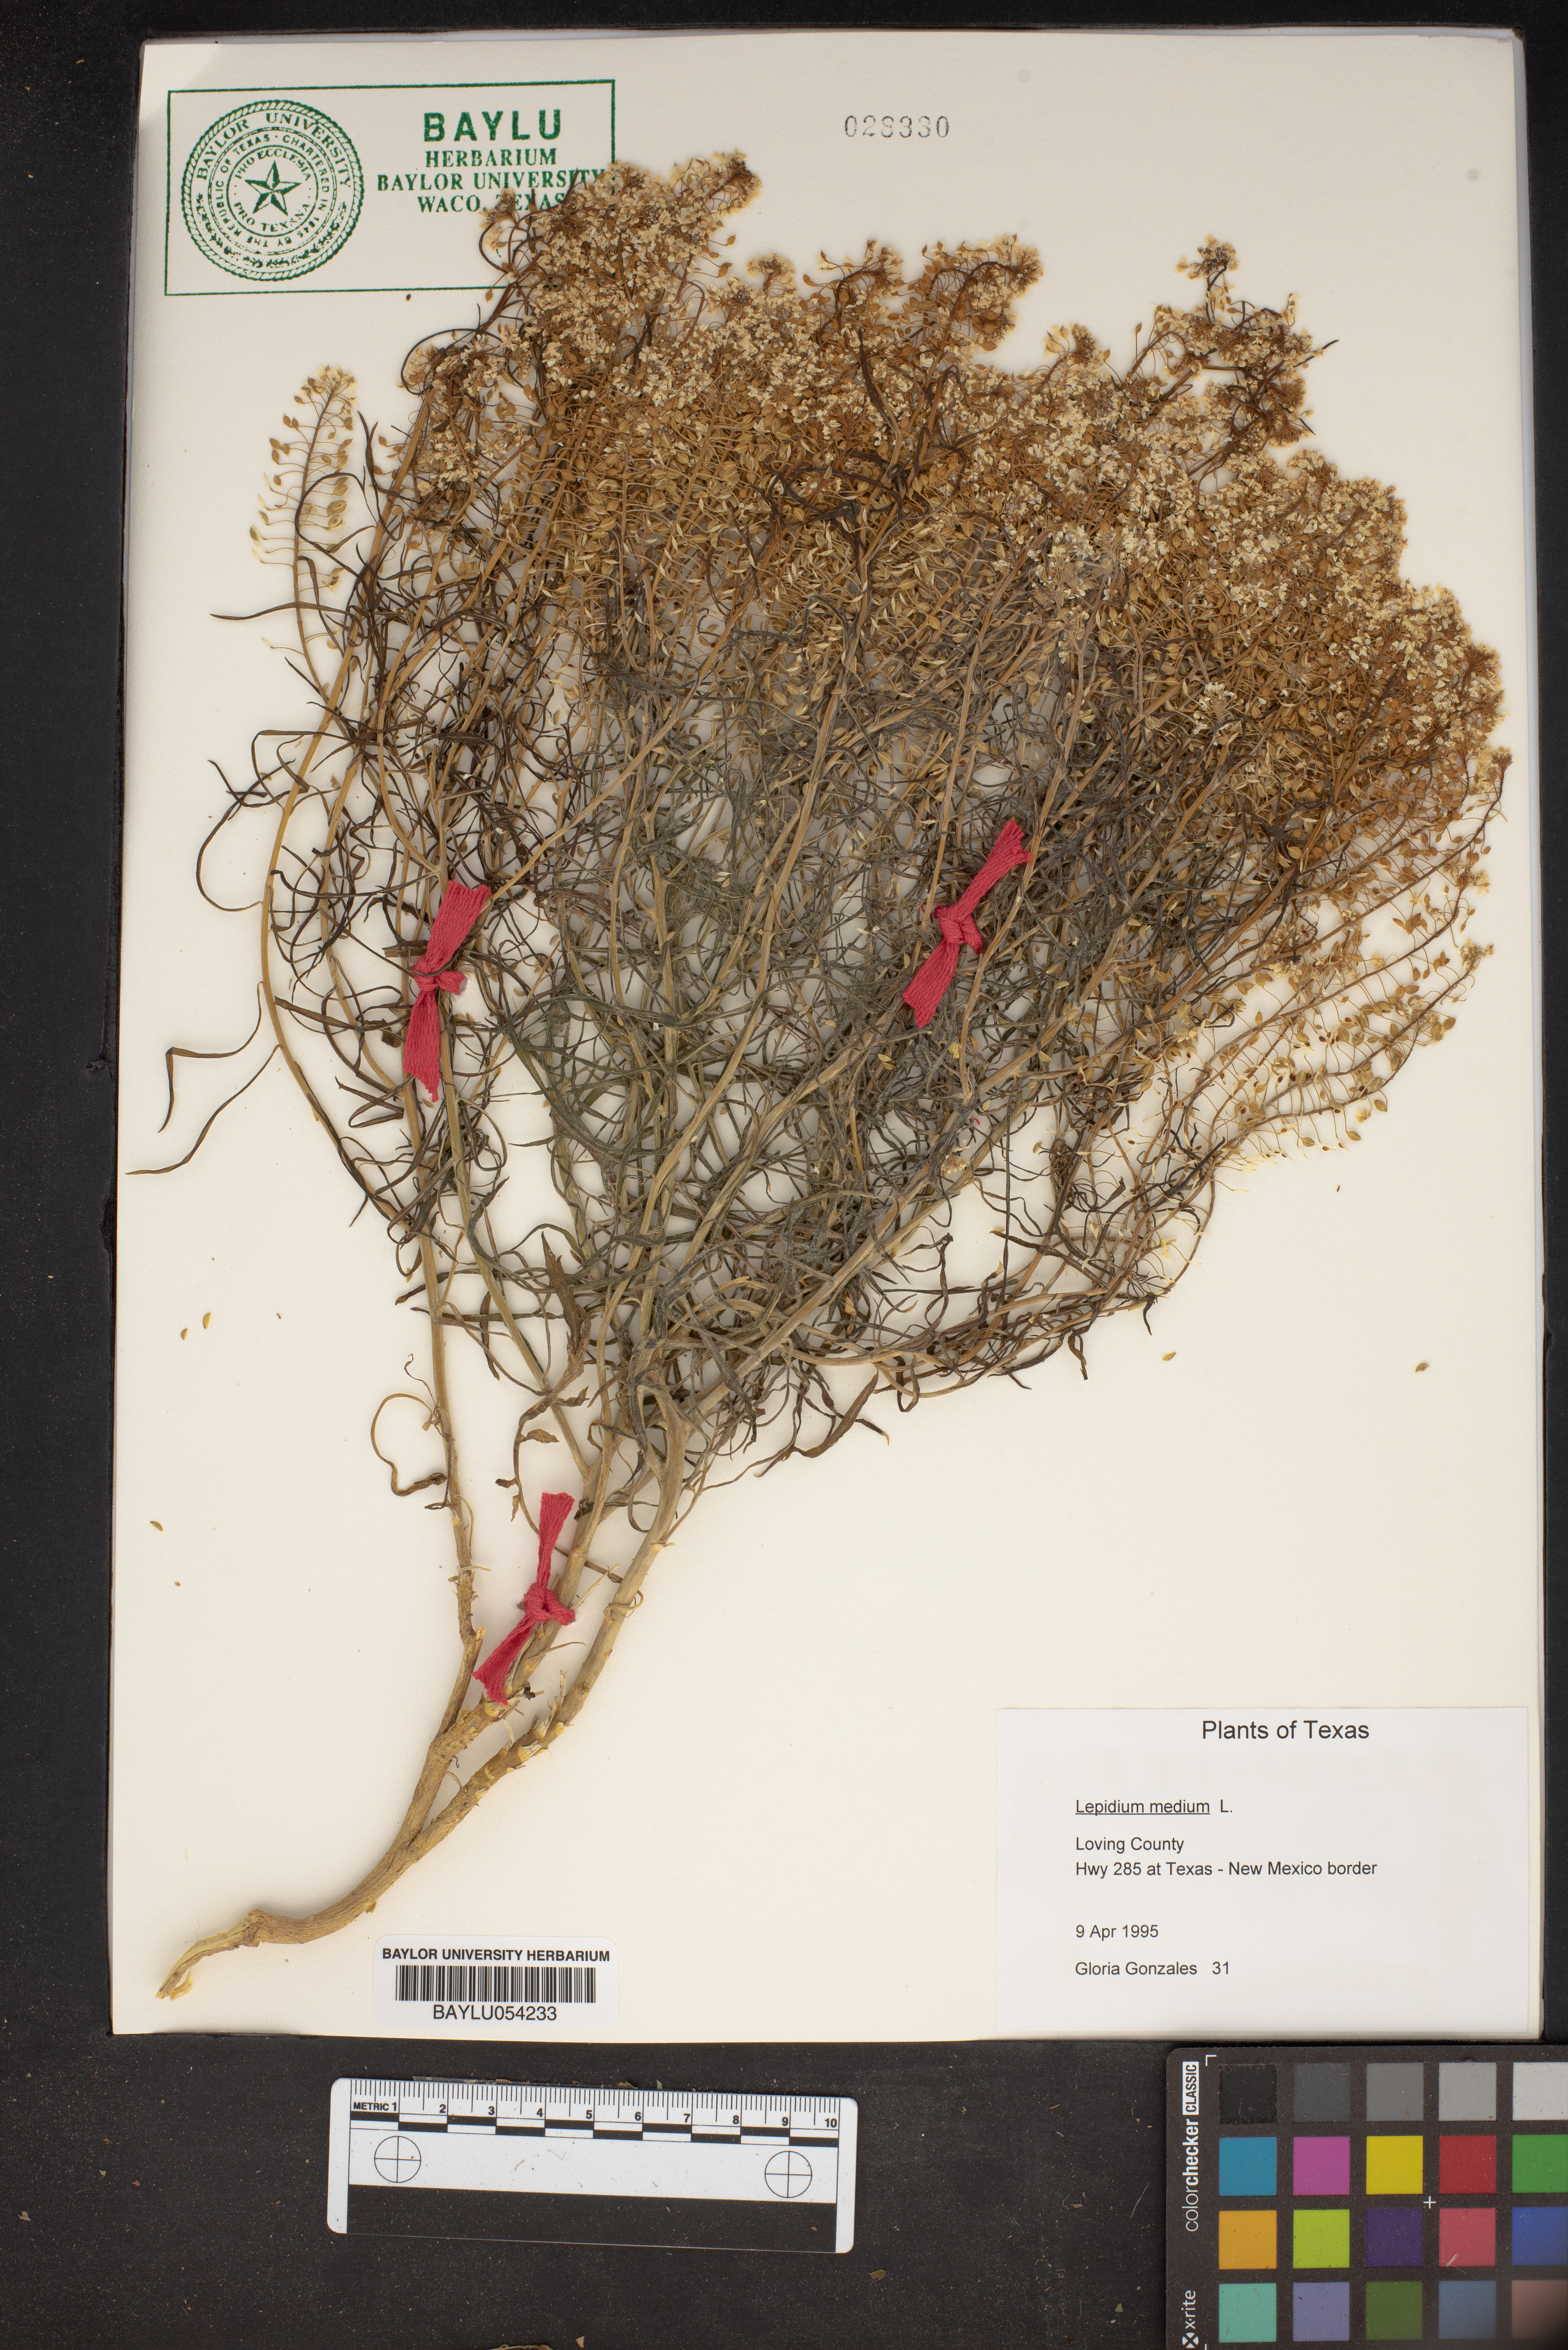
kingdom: Plantae
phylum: Tracheophyta
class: Magnoliopsida
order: Brassicales
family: Brassicaceae
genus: Lepidium
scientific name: Lepidium virginicum
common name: Least pepperwort
